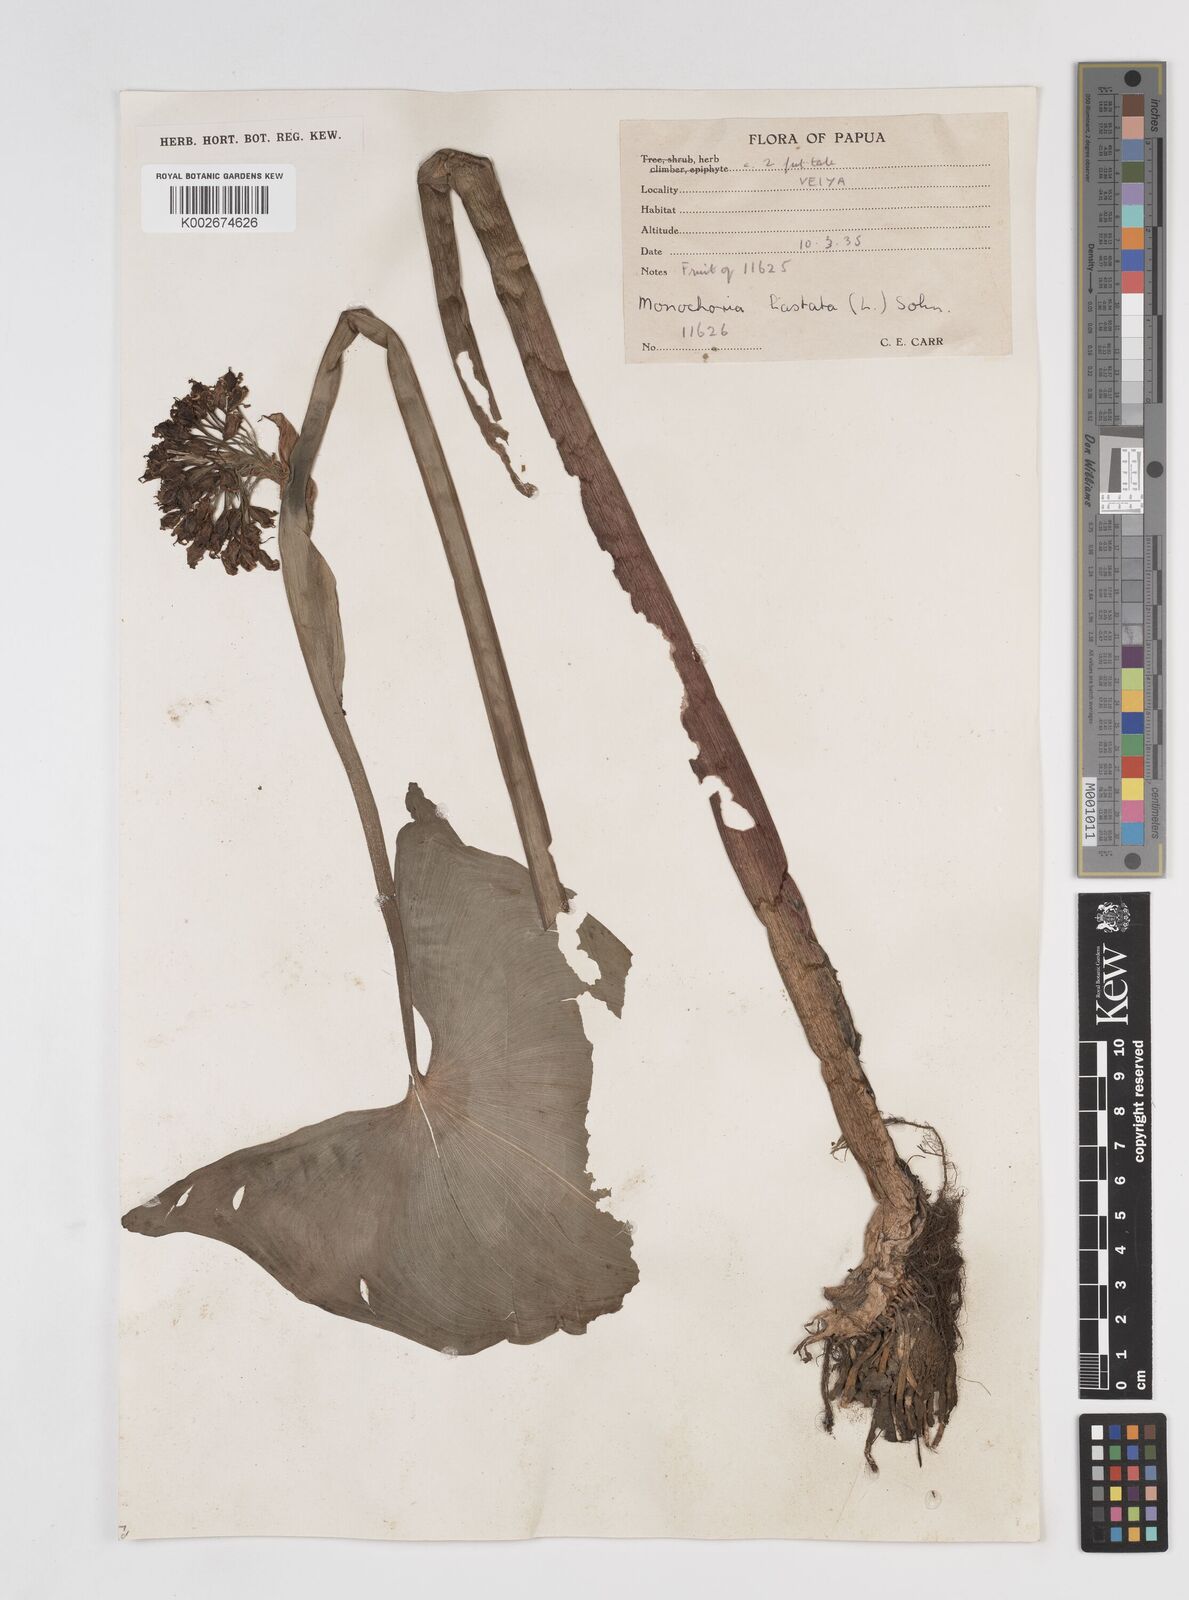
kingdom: Plantae
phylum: Tracheophyta
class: Liliopsida
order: Commelinales
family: Pontederiaceae
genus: Pontederia
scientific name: Pontederia hastata
